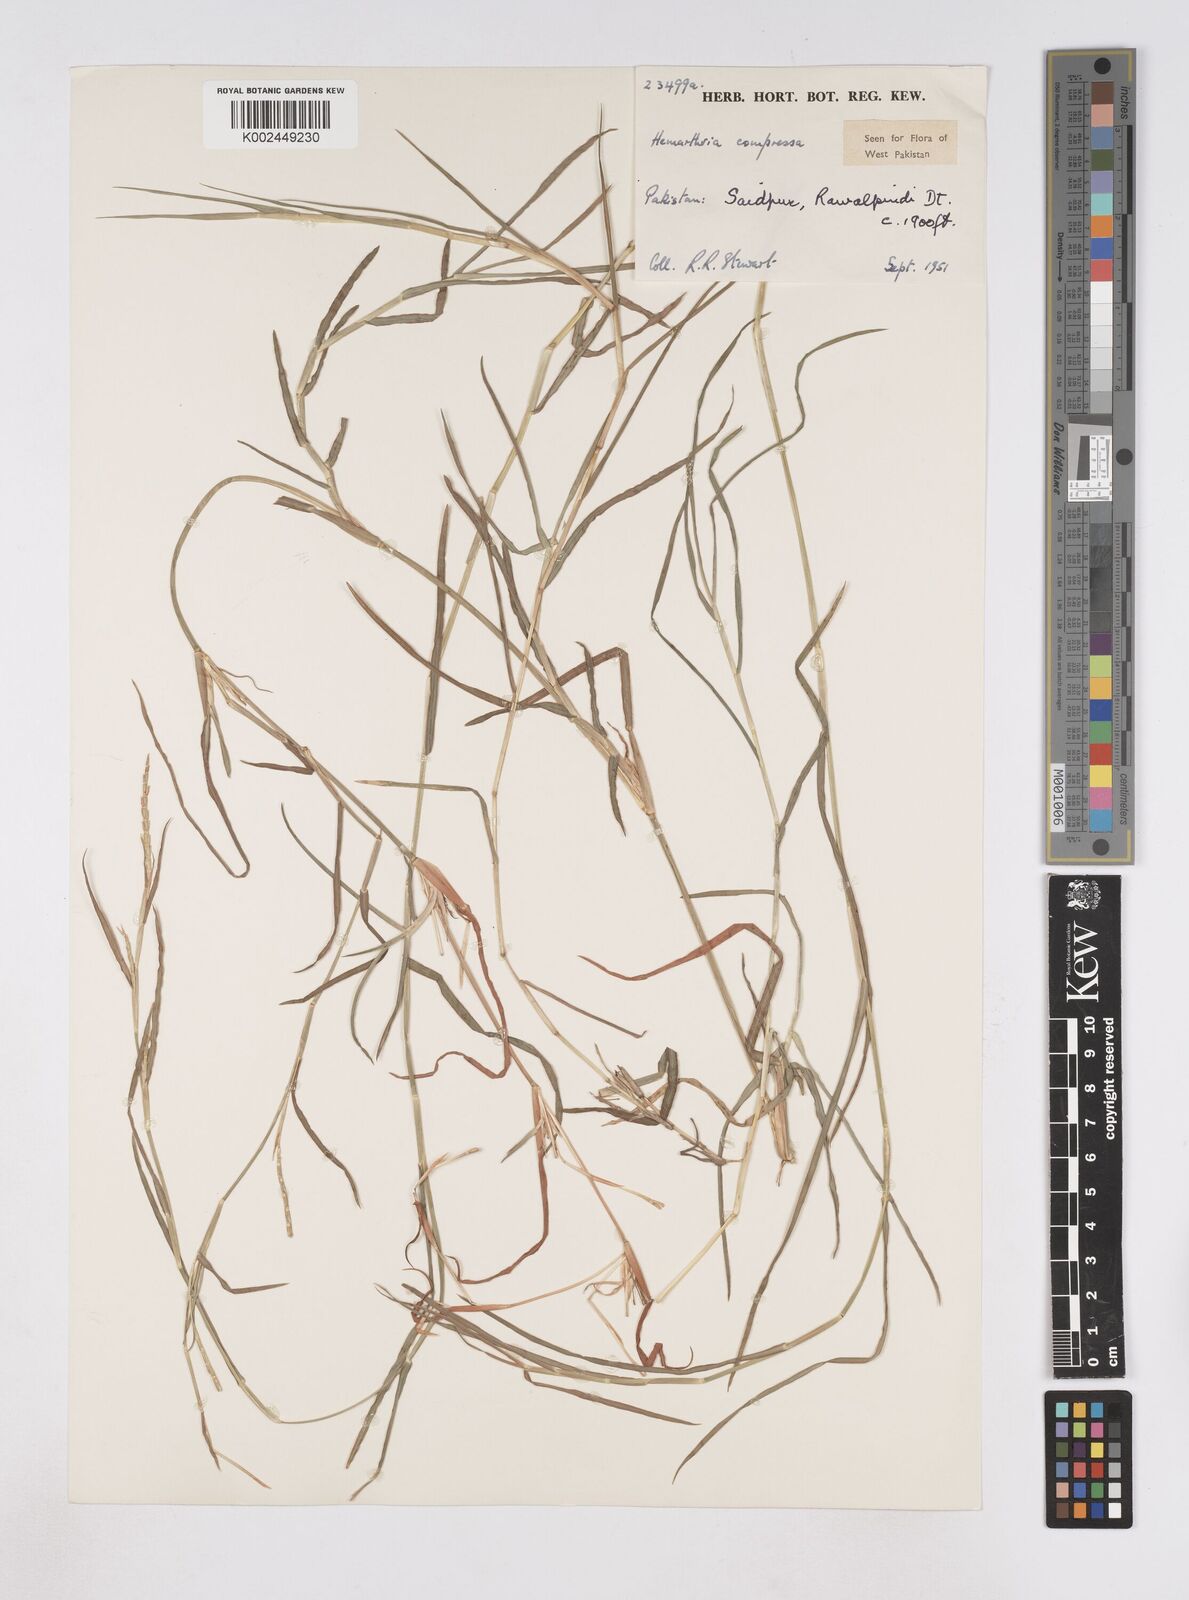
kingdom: Plantae
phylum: Tracheophyta
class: Liliopsida
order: Poales
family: Poaceae
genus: Hemarthria
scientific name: Hemarthria compressa
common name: Whip grass
